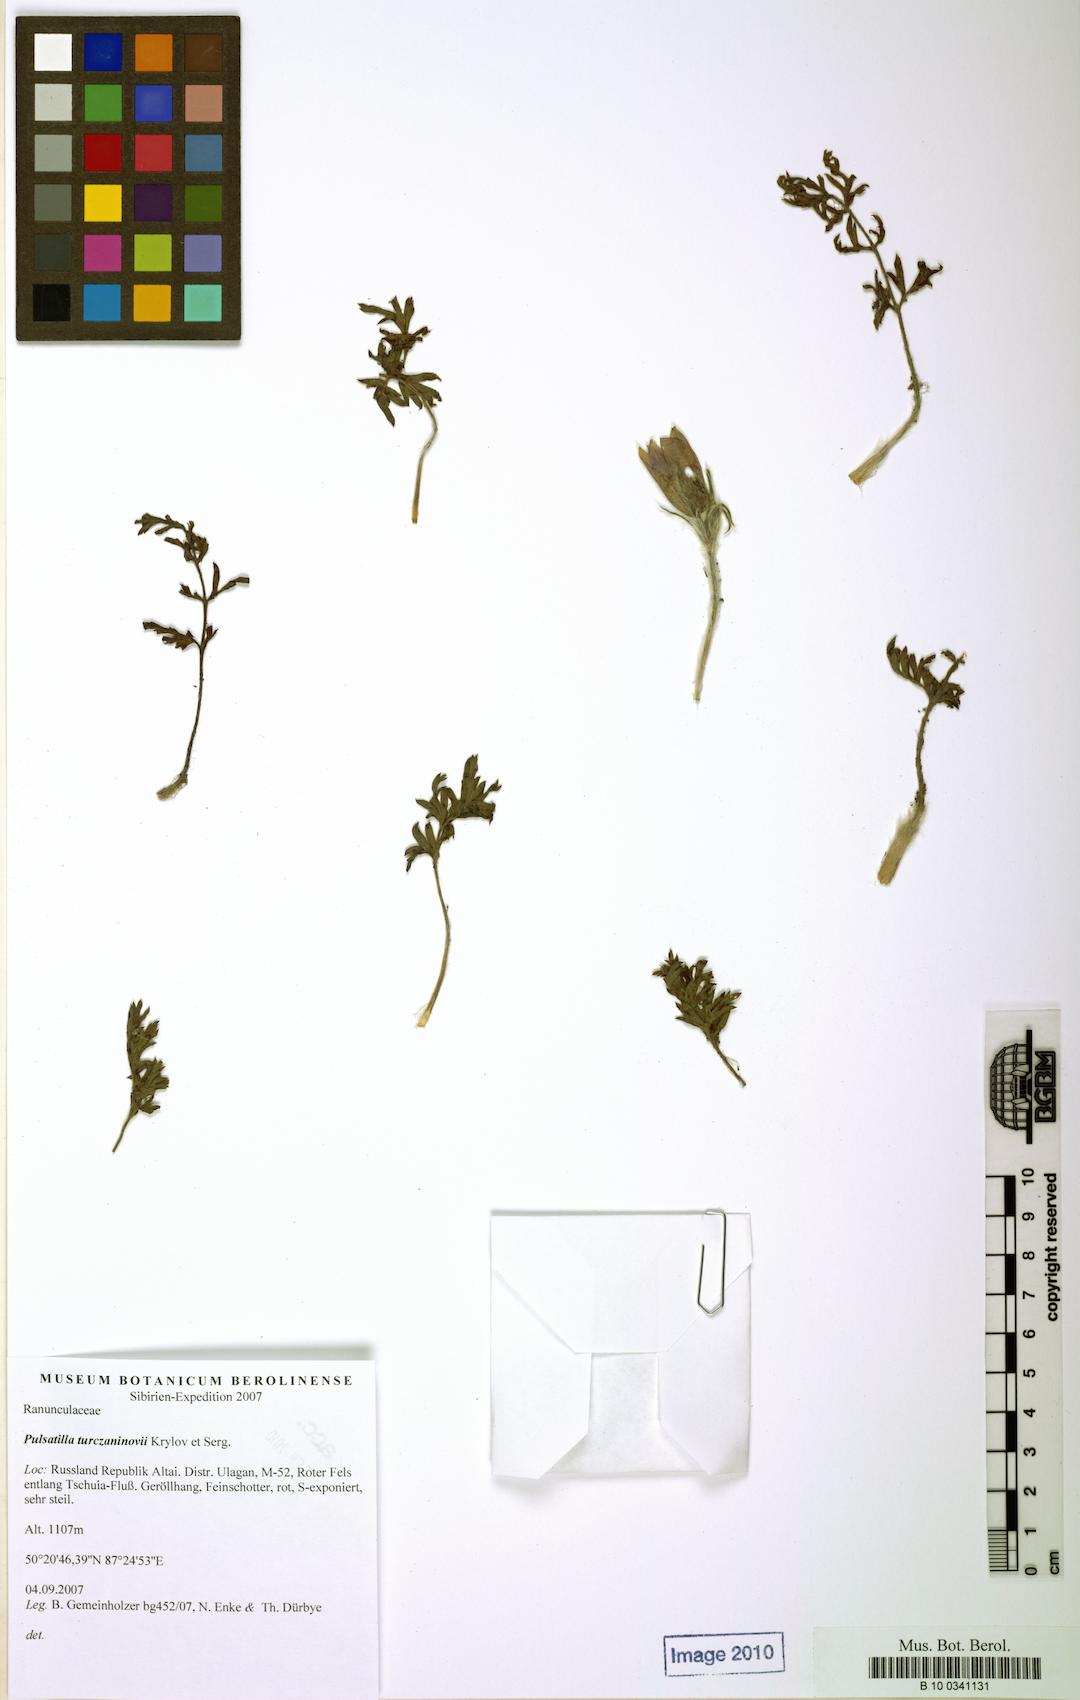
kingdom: Plantae
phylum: Tracheophyta
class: Magnoliopsida
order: Ranunculales
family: Ranunculaceae
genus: Pulsatilla
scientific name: Pulsatilla turczaninovii
